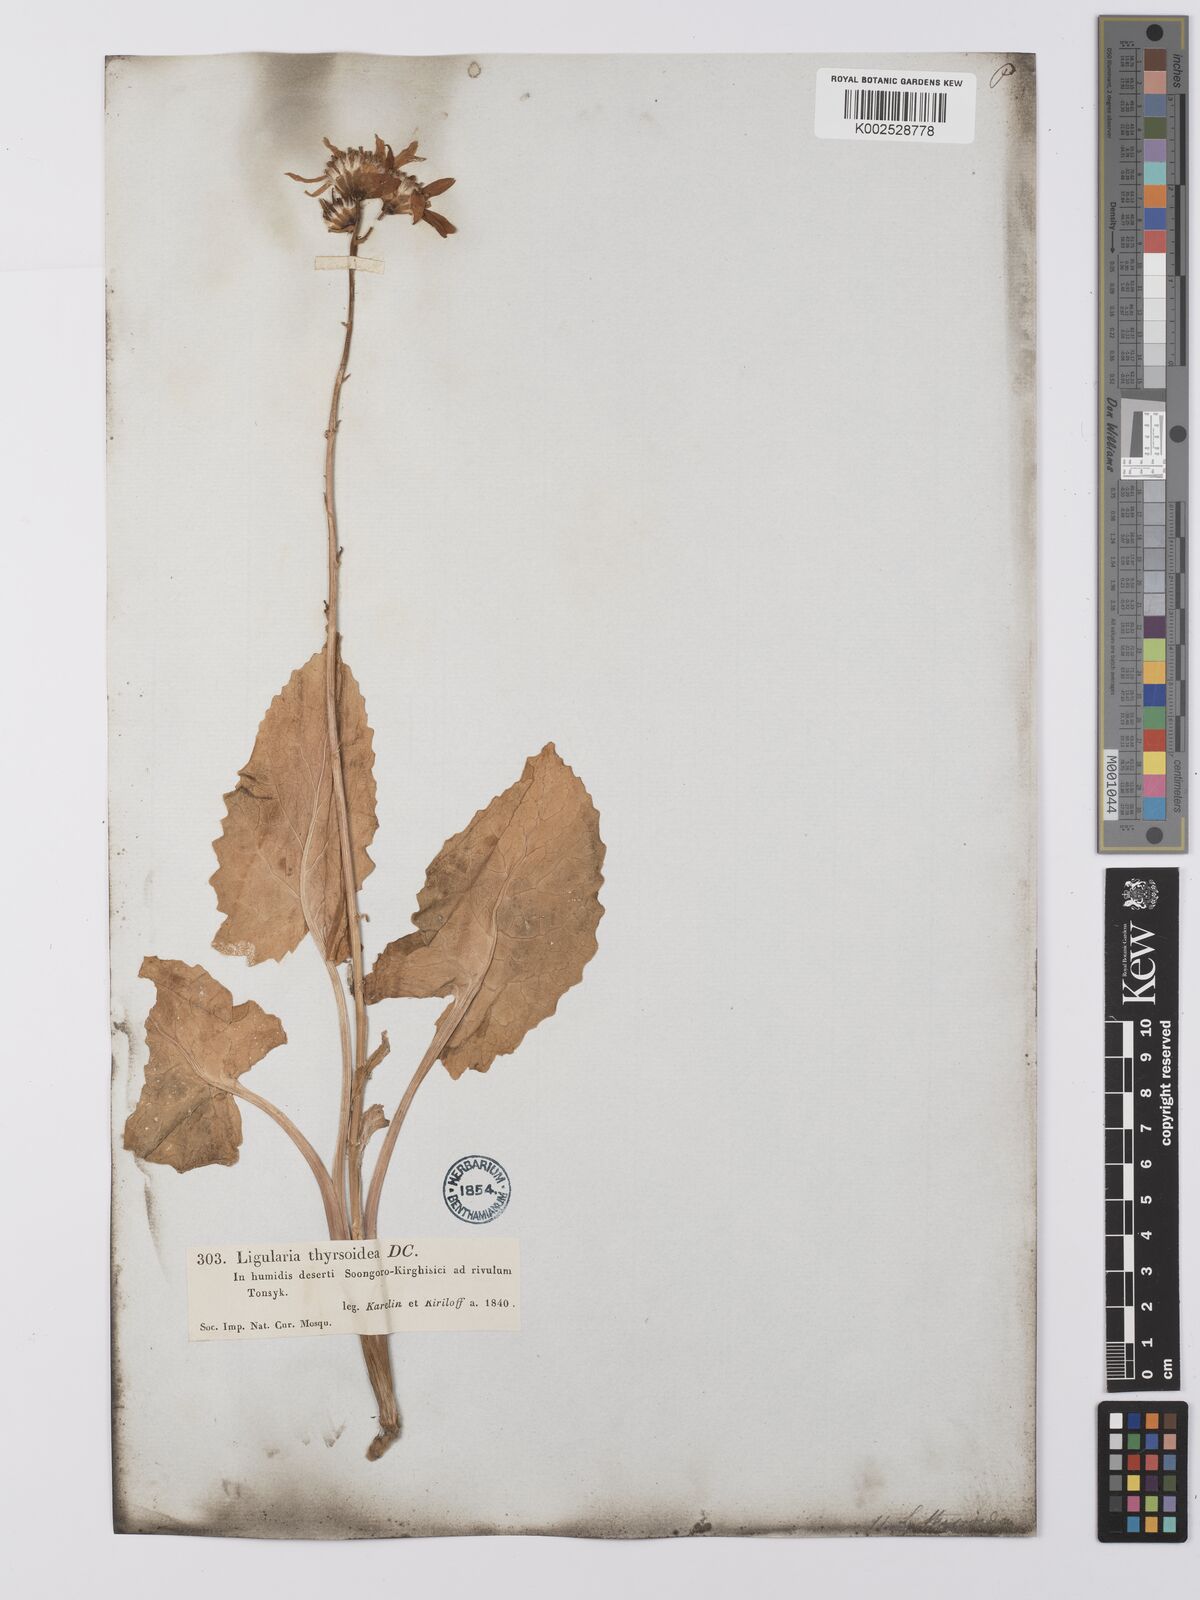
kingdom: Plantae
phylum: Tracheophyta
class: Magnoliopsida
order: Asterales
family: Asteraceae
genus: Vickifunkia
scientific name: Vickifunkia thyrsoidea
